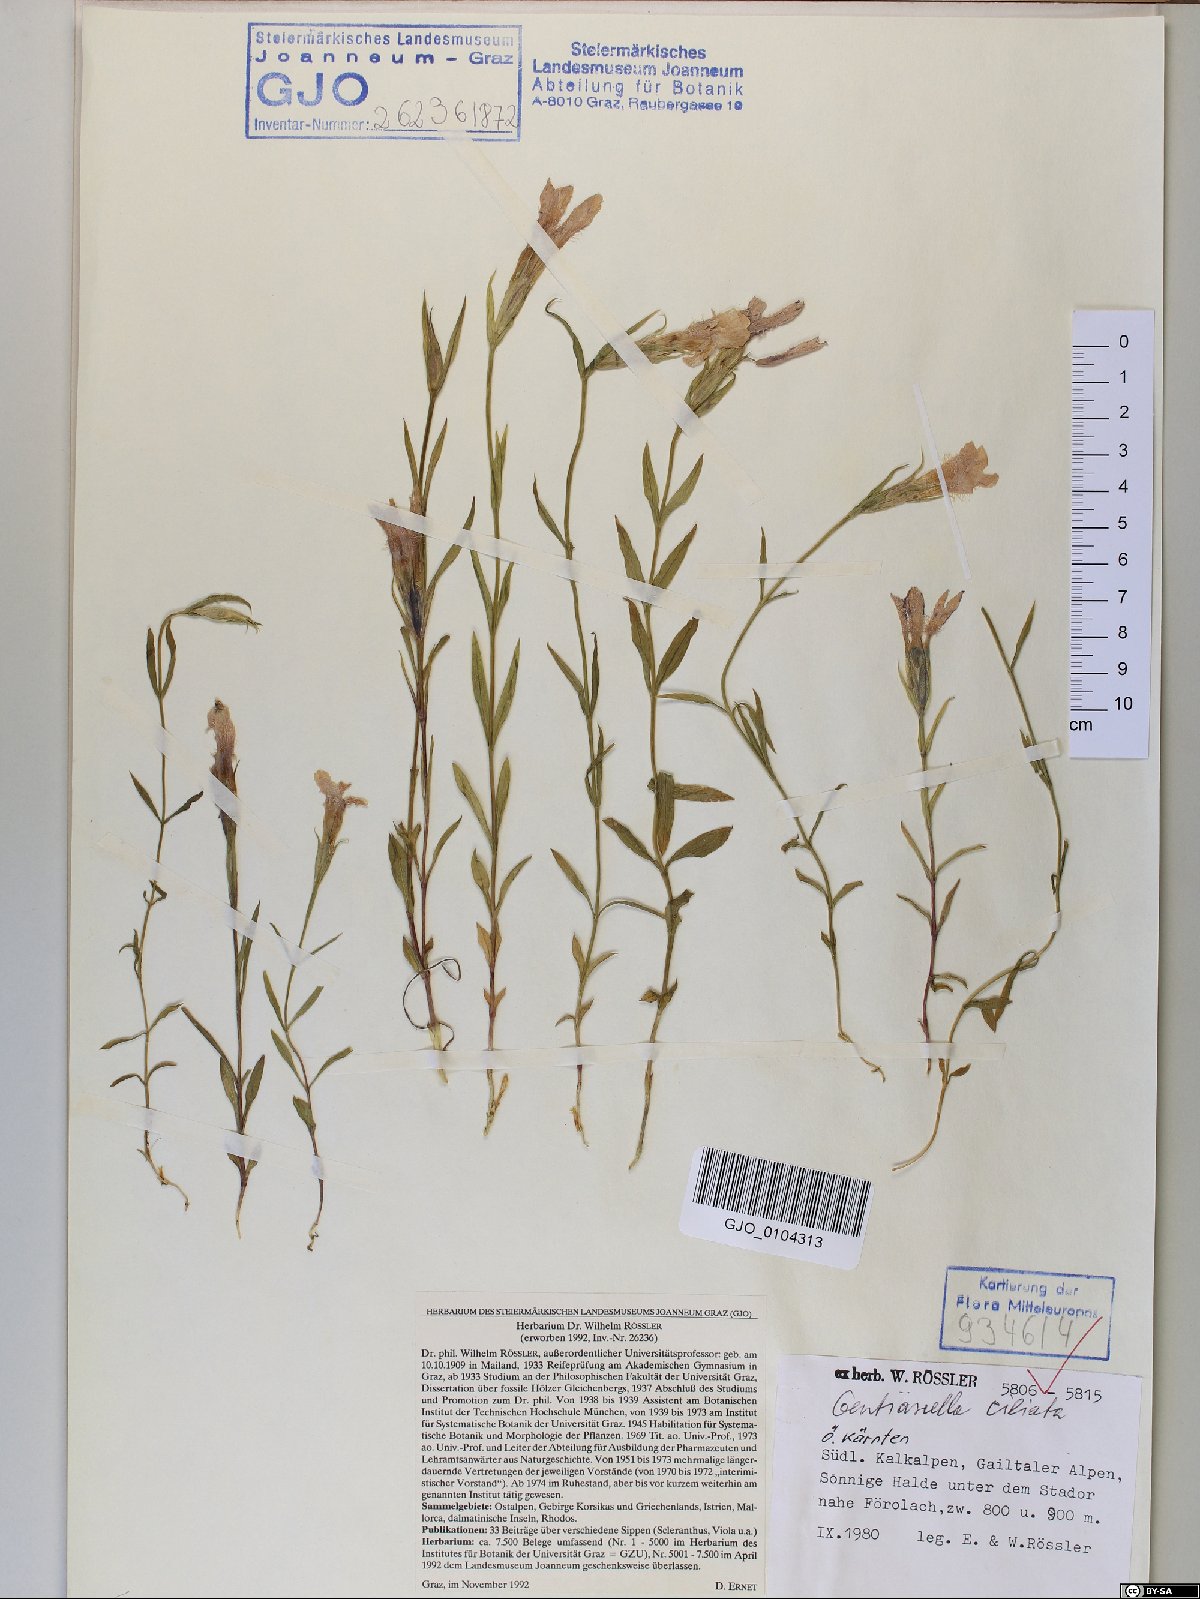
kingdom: Plantae
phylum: Tracheophyta
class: Magnoliopsida
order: Gentianales
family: Gentianaceae
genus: Gentianopsis
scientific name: Gentianopsis ciliata
